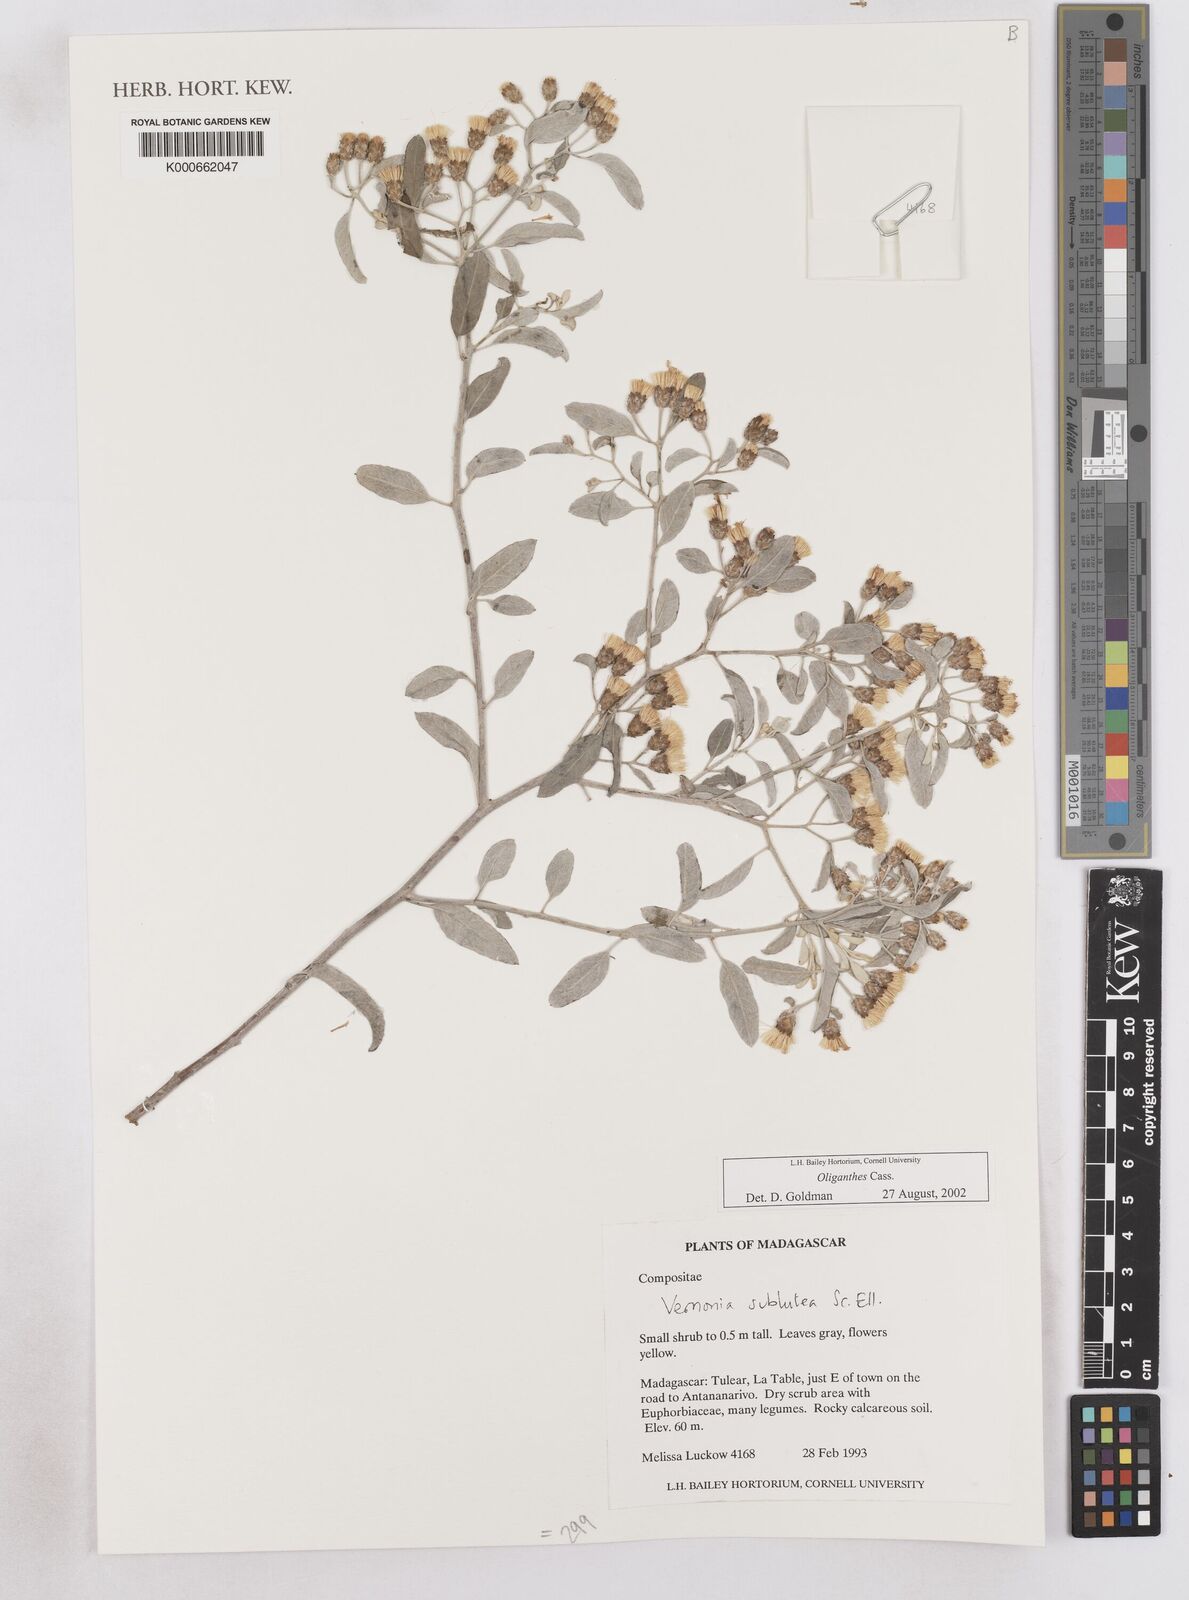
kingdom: Plantae
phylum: Tracheophyta
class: Magnoliopsida
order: Asterales
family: Asteraceae
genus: Oliganthes
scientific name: Oliganthes
